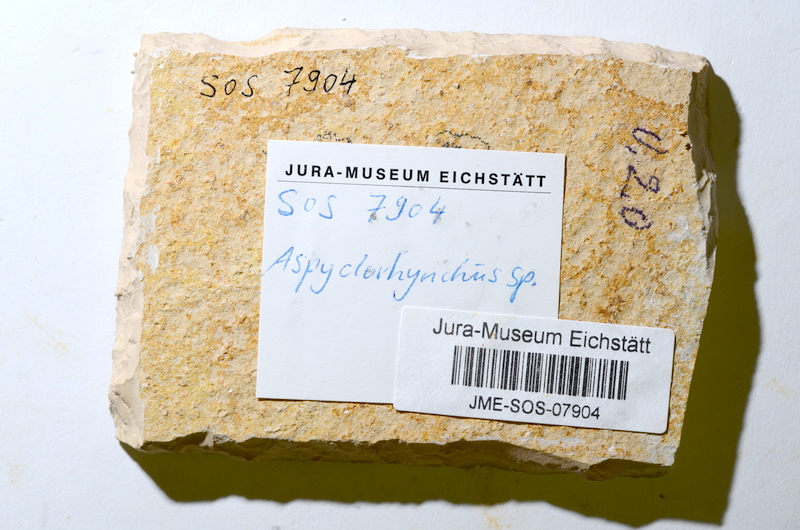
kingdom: Animalia
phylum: Chordata
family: Aspidorhynchidae
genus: Aspidorhynchus
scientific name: Aspidorhynchus acutirostris
